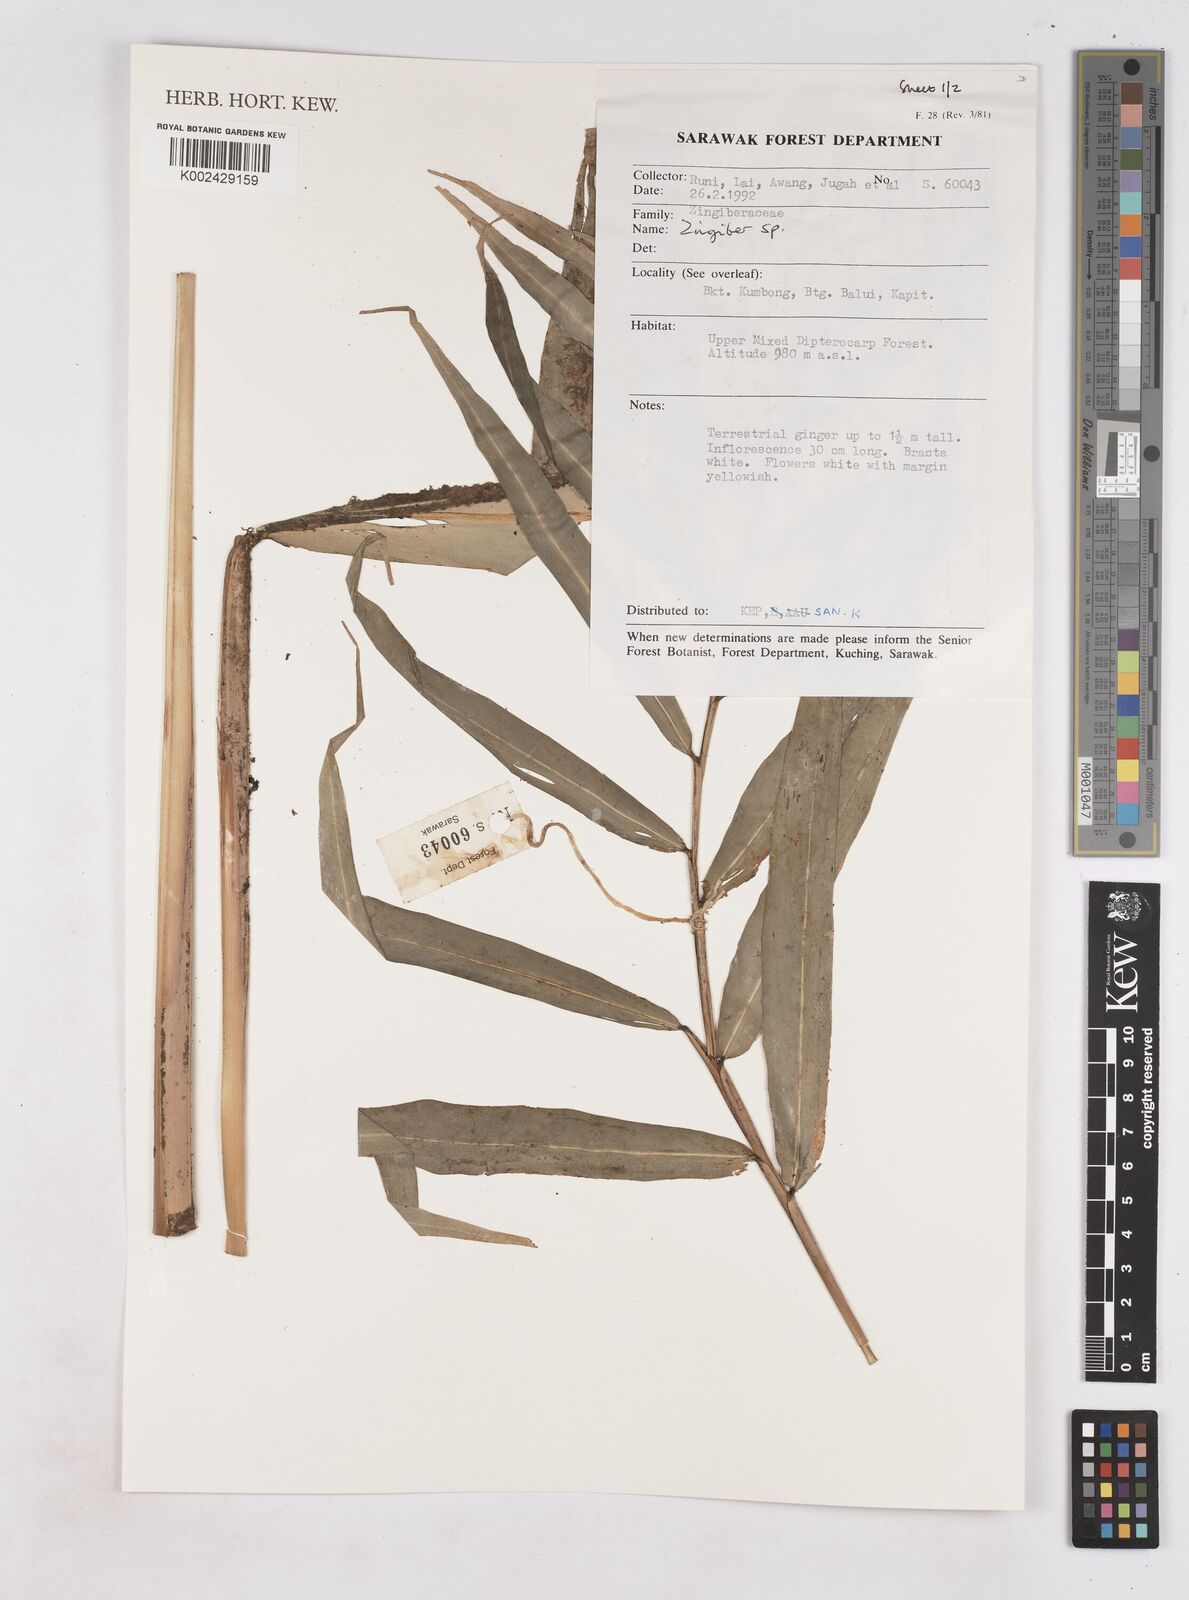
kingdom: Plantae
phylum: Tracheophyta
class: Liliopsida
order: Zingiberales
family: Zingiberaceae
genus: Zingiber
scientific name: Zingiber
